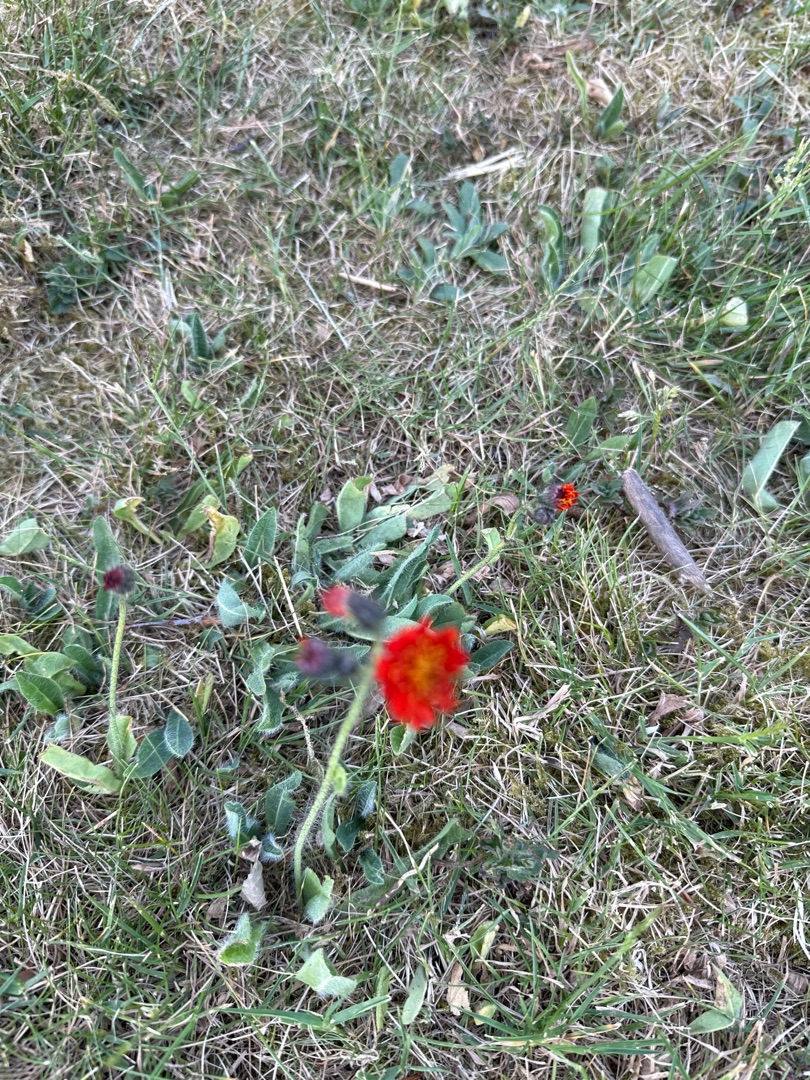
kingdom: Plantae
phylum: Tracheophyta
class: Magnoliopsida
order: Asterales
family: Asteraceae
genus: Pilosella
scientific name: Pilosella aurantiaca
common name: Pomerans-høgeurt
